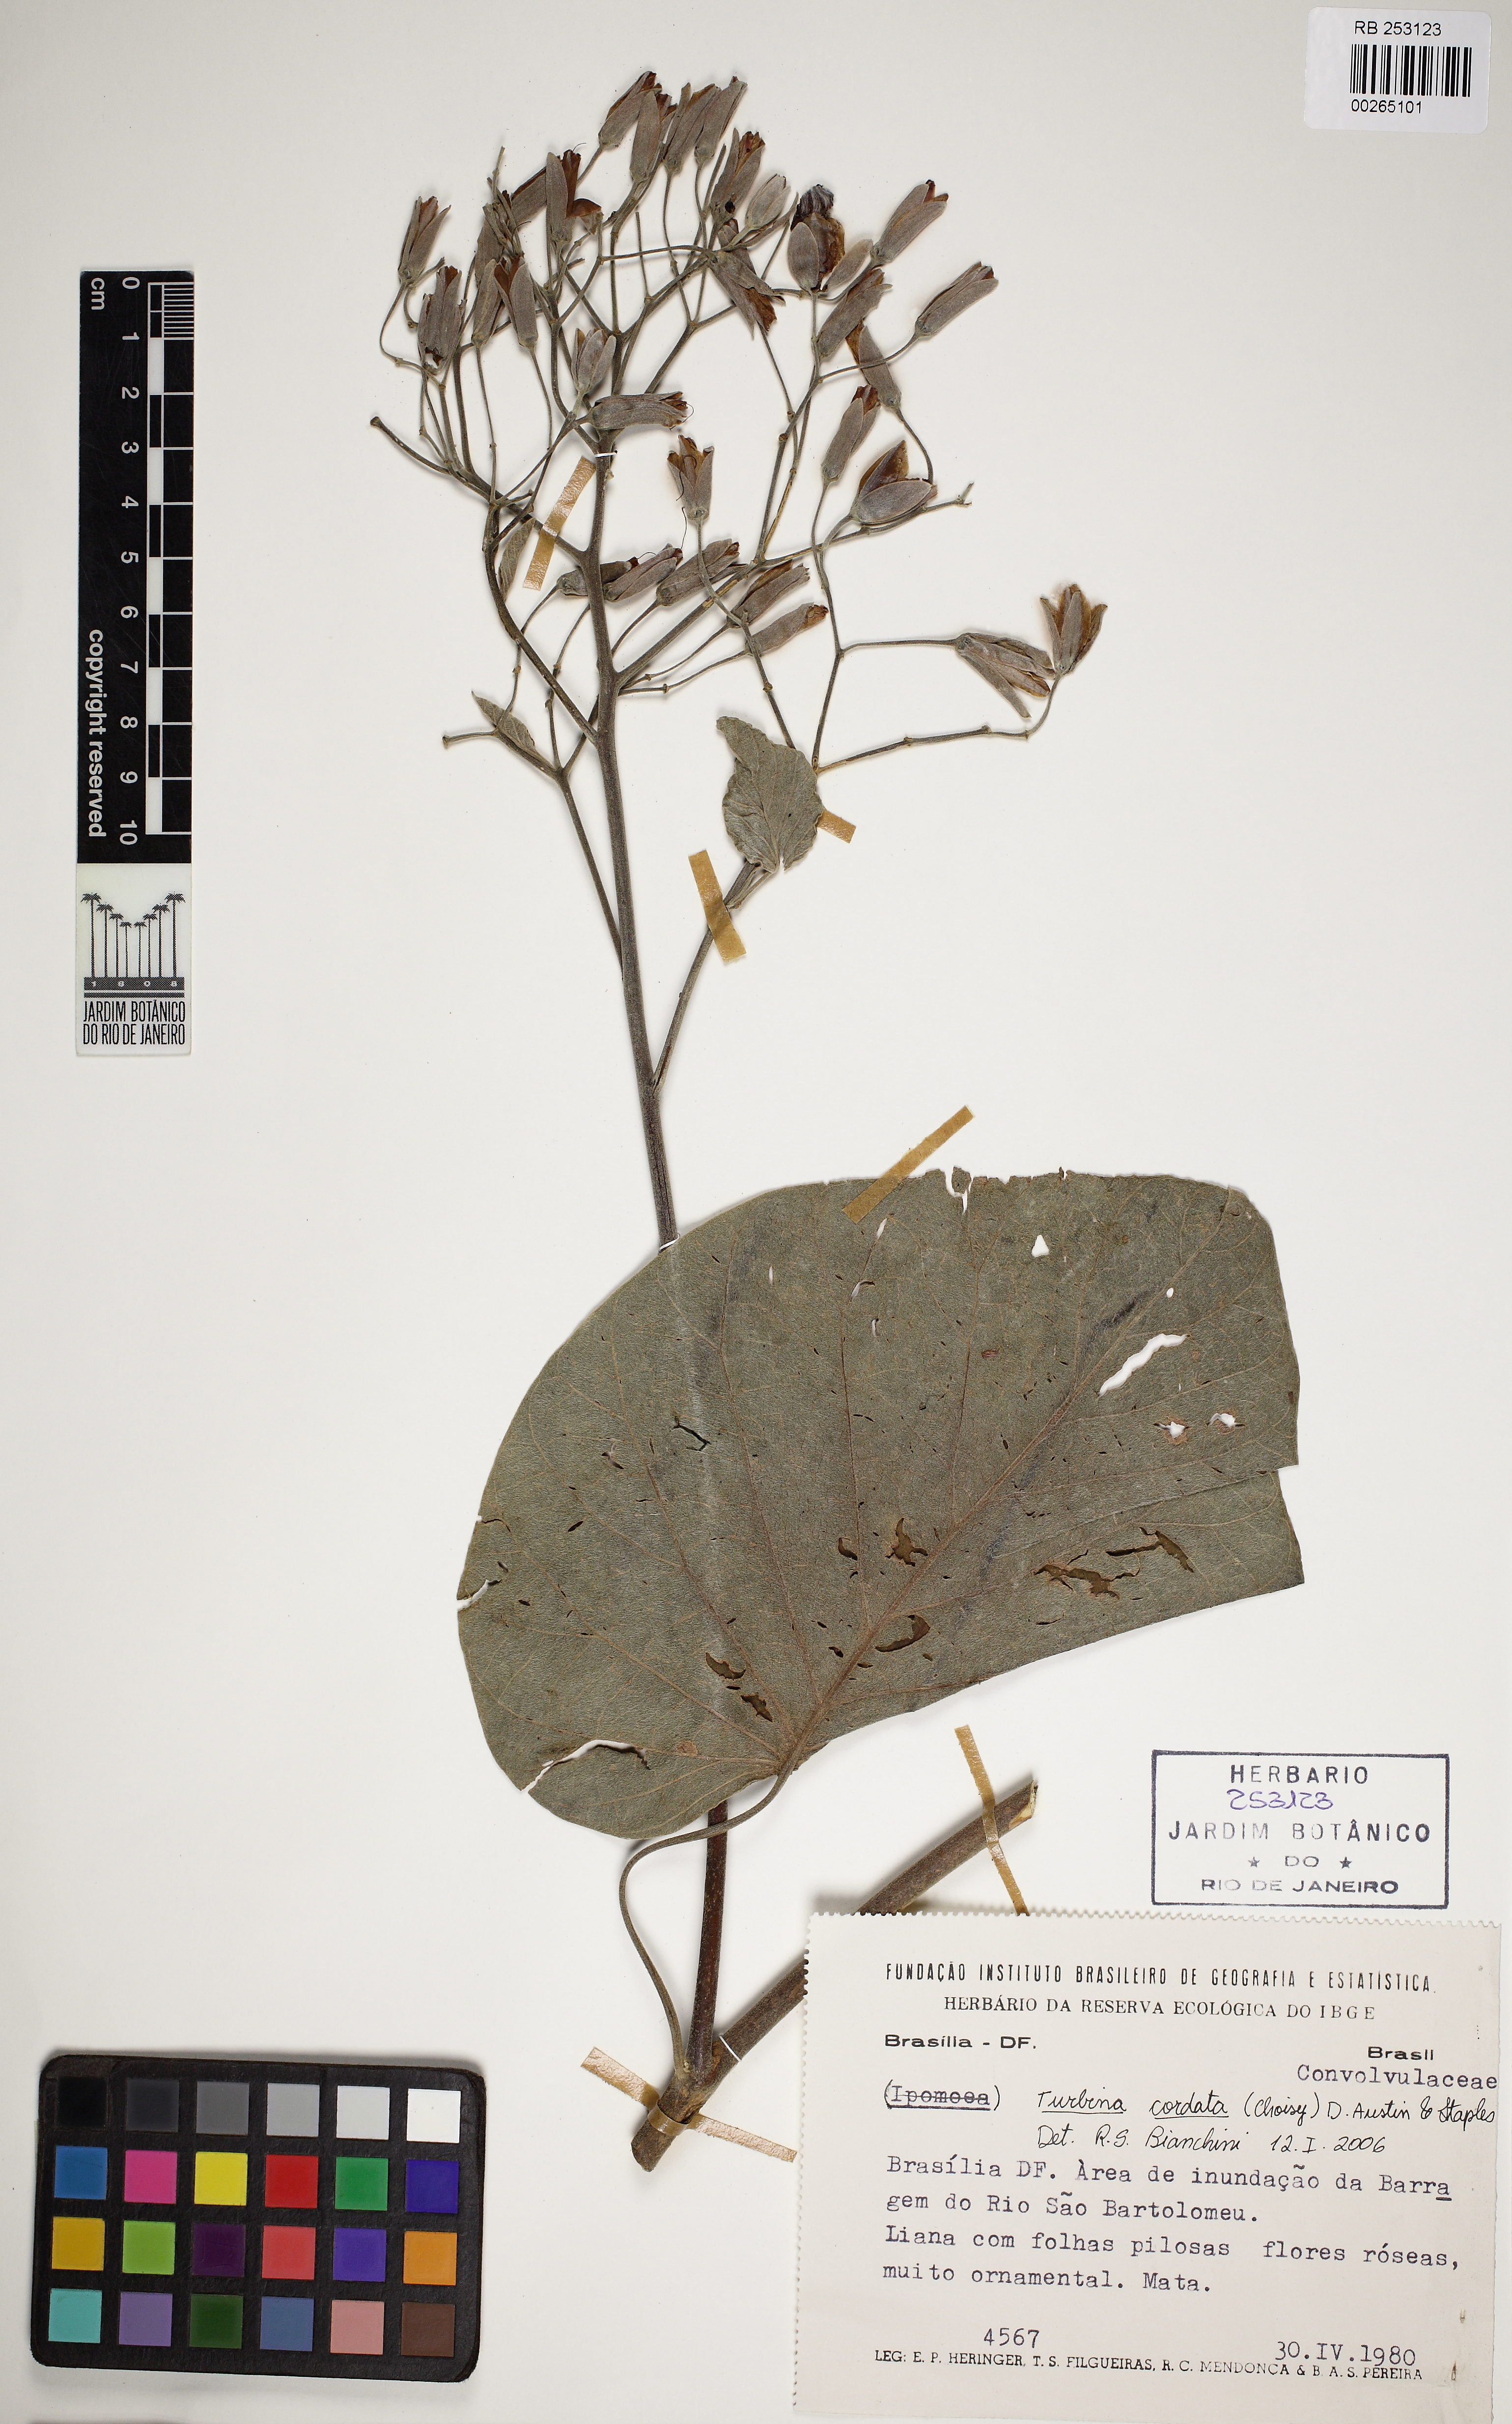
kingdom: Plantae
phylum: Tracheophyta
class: Magnoliopsida
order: Solanales
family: Convolvulaceae
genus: Ipomoea
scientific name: Ipomoea sericosepala
